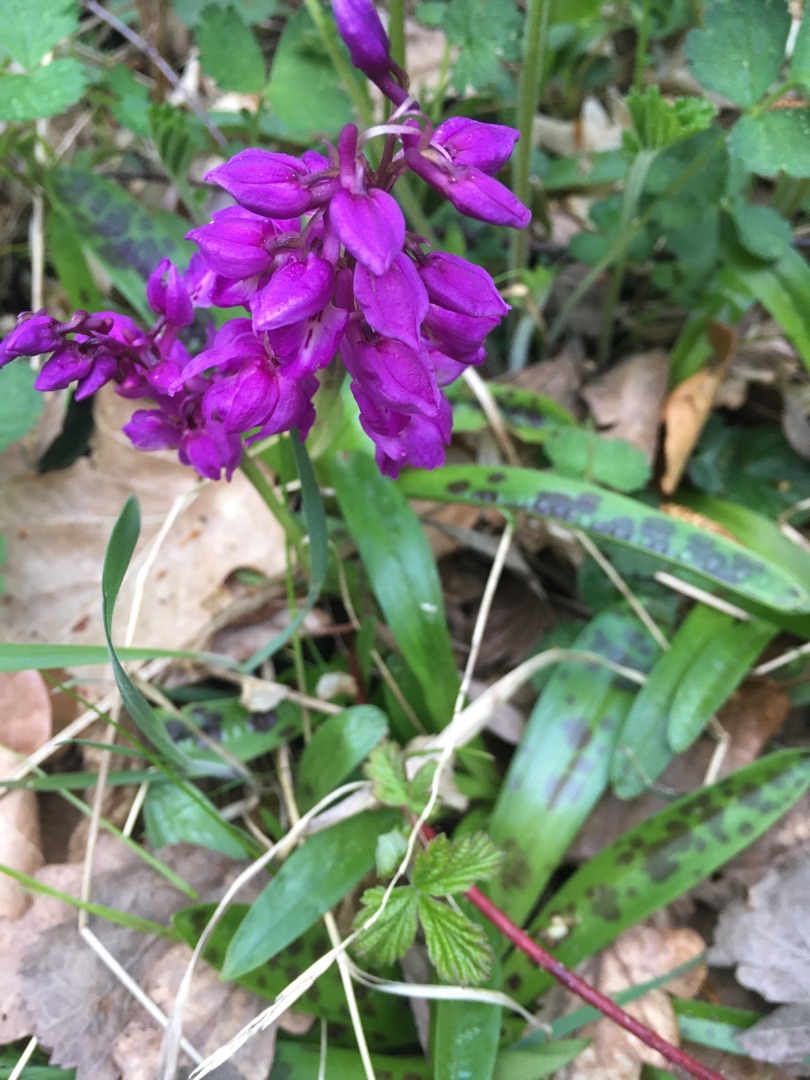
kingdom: Plantae
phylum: Tracheophyta
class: Liliopsida
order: Asparagales
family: Orchidaceae
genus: Orchis
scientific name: Orchis mascula
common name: Tyndakset gøgeurt
